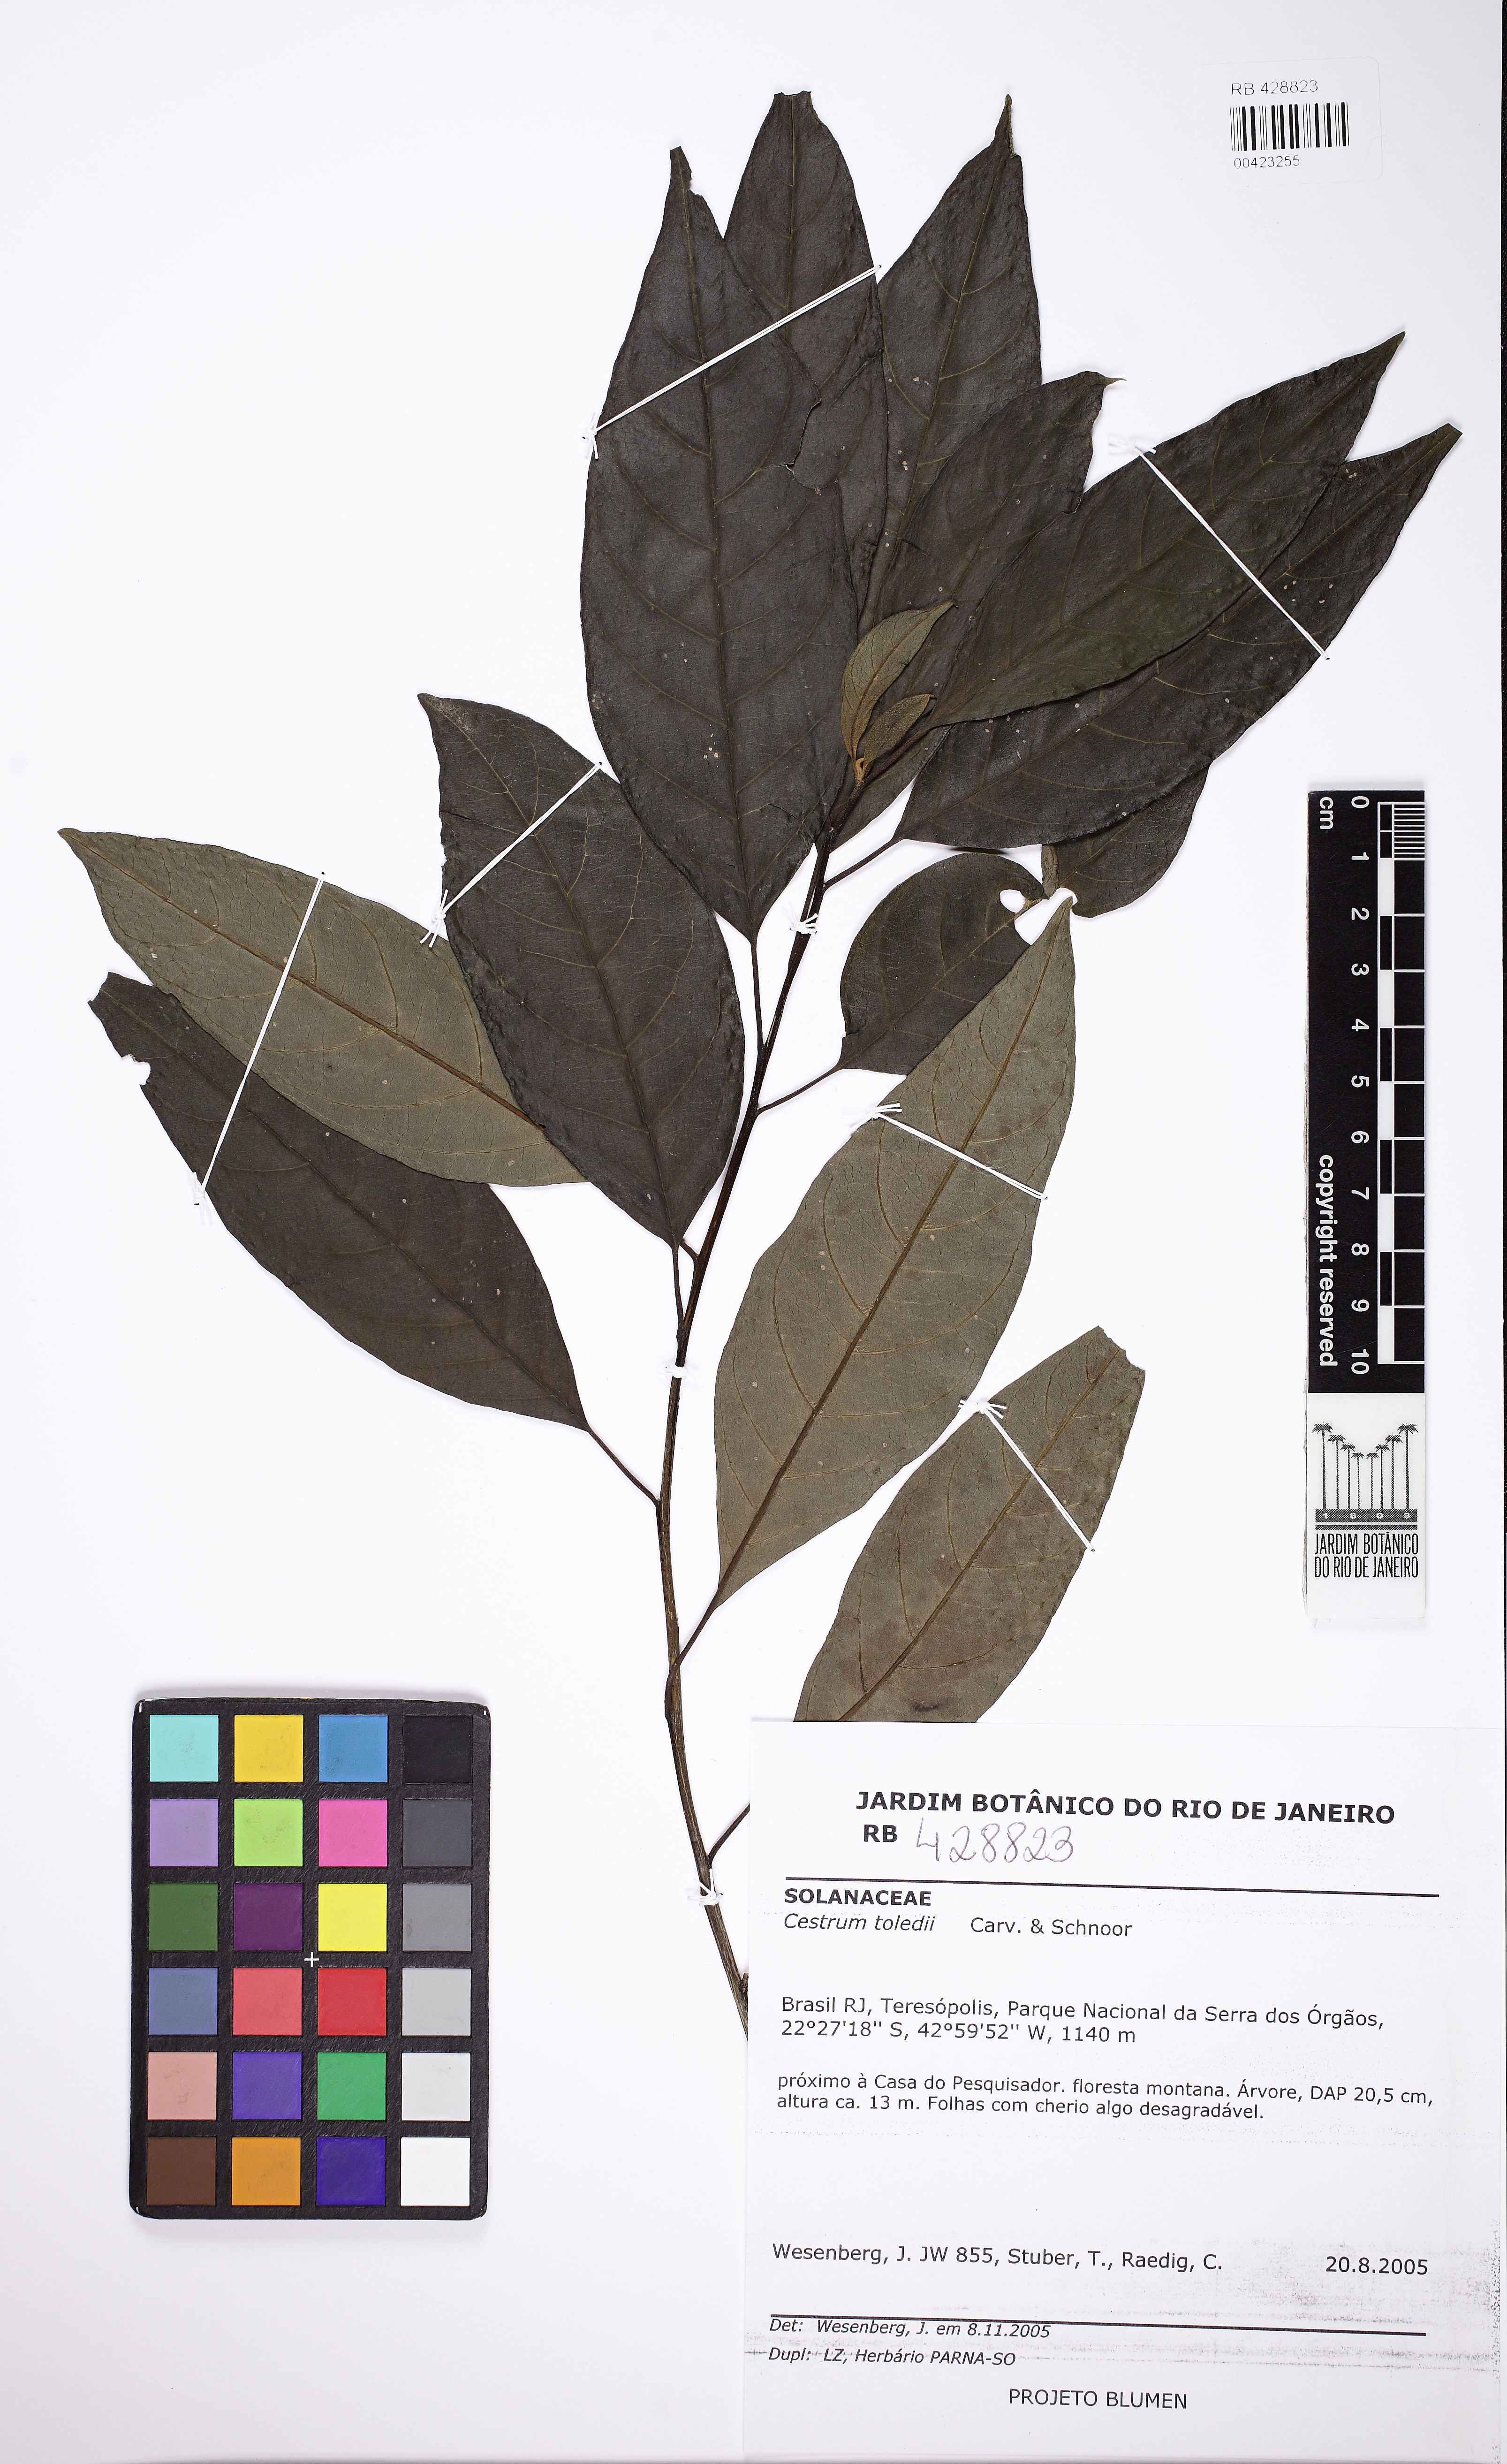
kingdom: Plantae
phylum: Tracheophyta
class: Magnoliopsida
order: Solanales
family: Solanaceae
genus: Cestrum
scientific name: Cestrum toledii
